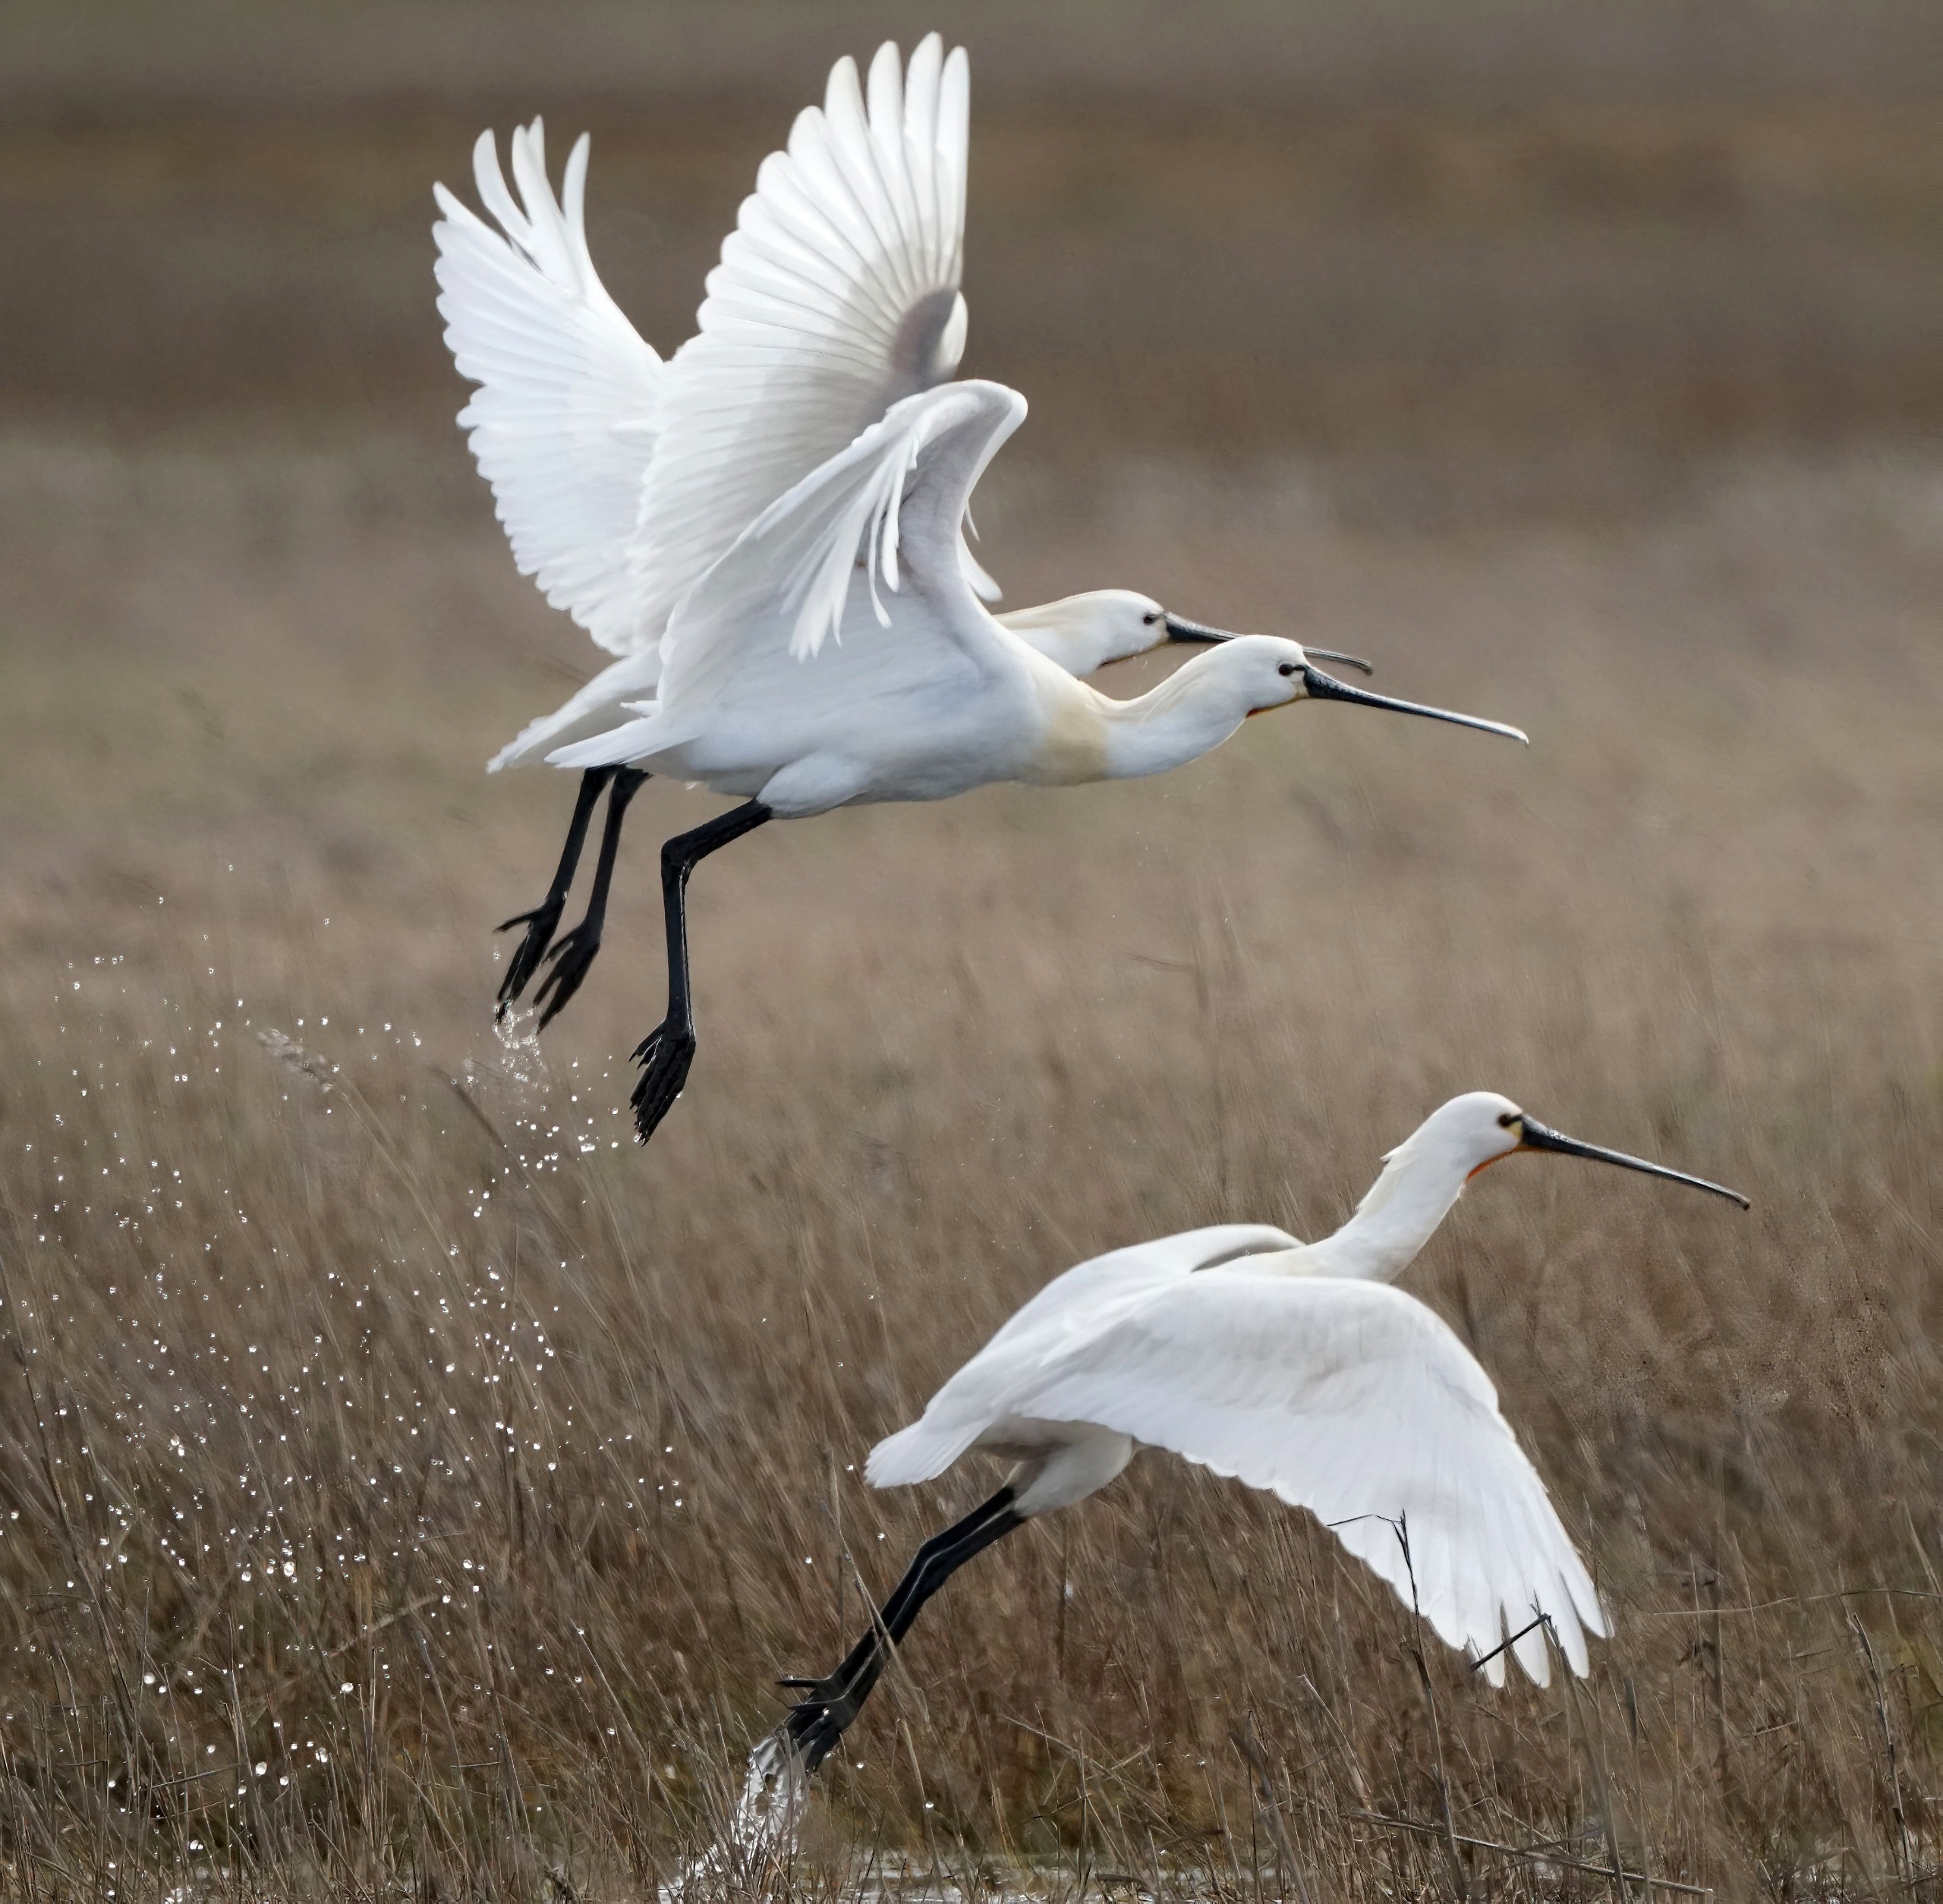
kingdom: Animalia
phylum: Chordata
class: Aves
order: Pelecaniformes
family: Threskiornithidae
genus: Platalea
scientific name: Platalea leucorodia
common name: Skestork
